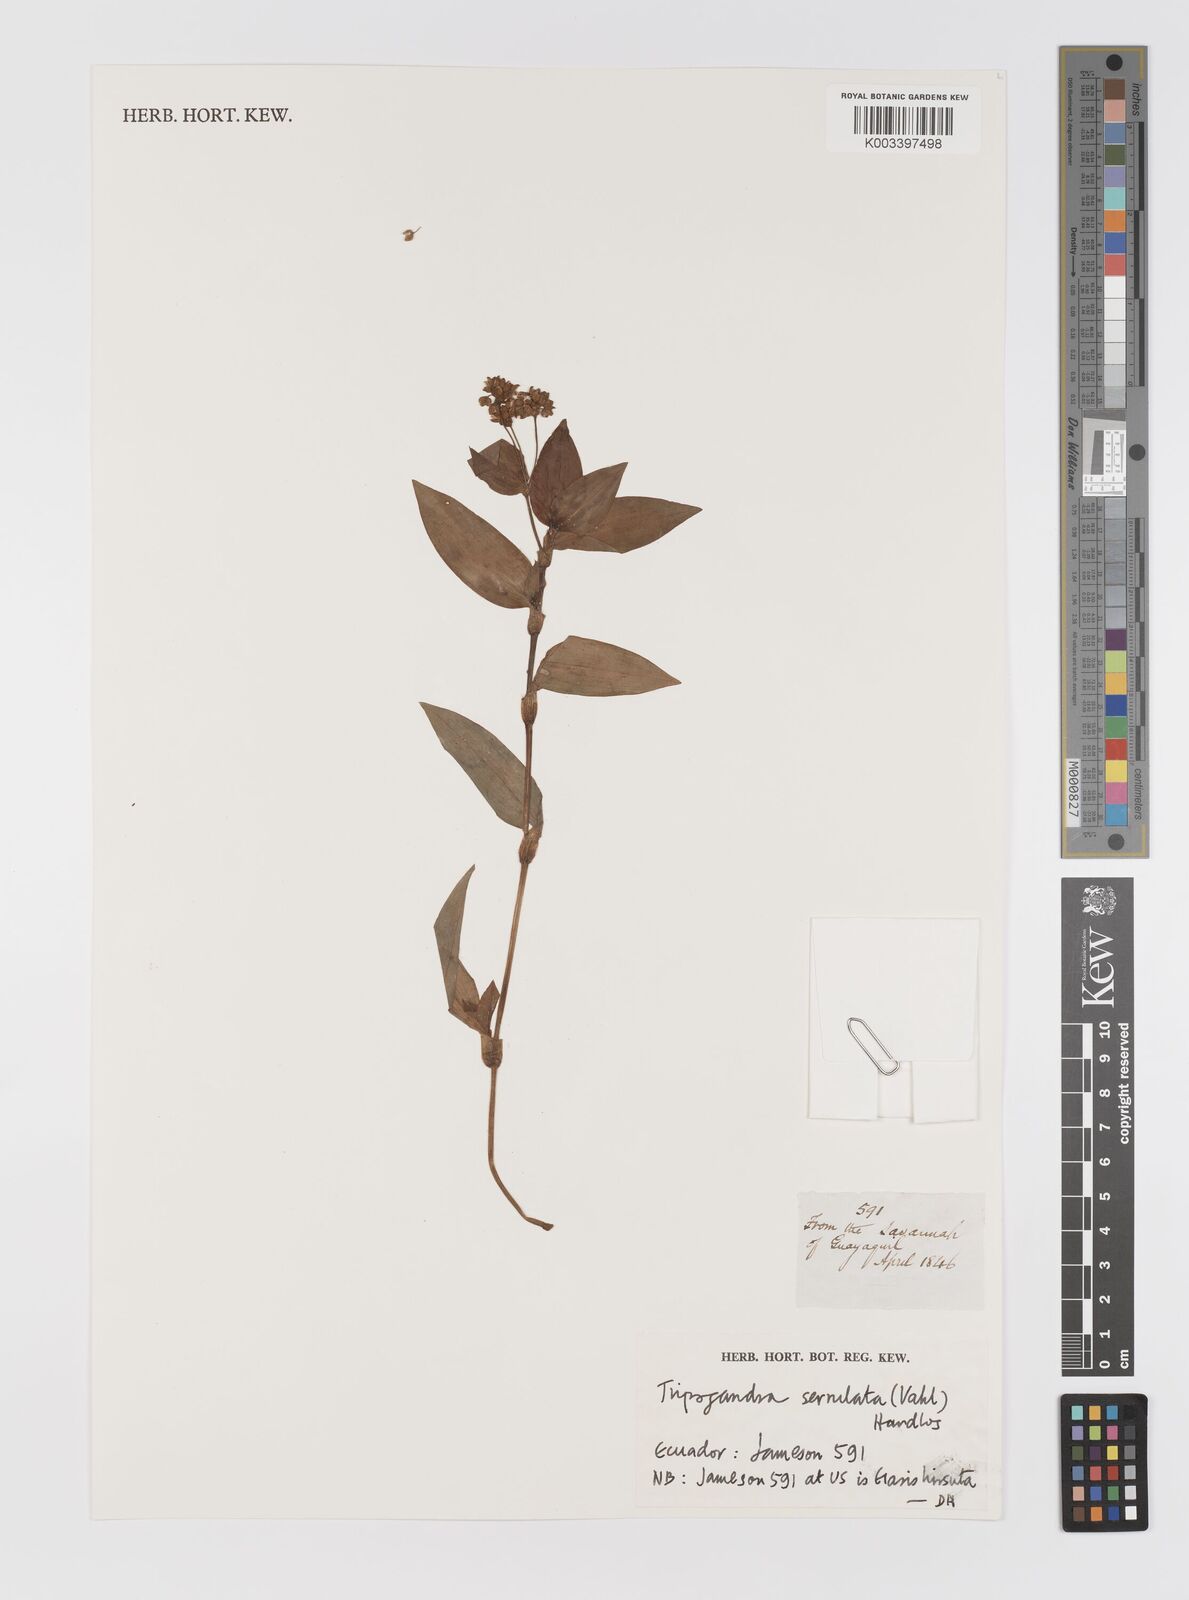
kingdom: Plantae
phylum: Tracheophyta
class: Liliopsida
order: Commelinales
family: Commelinaceae
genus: Callisia
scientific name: Callisia serrulata
